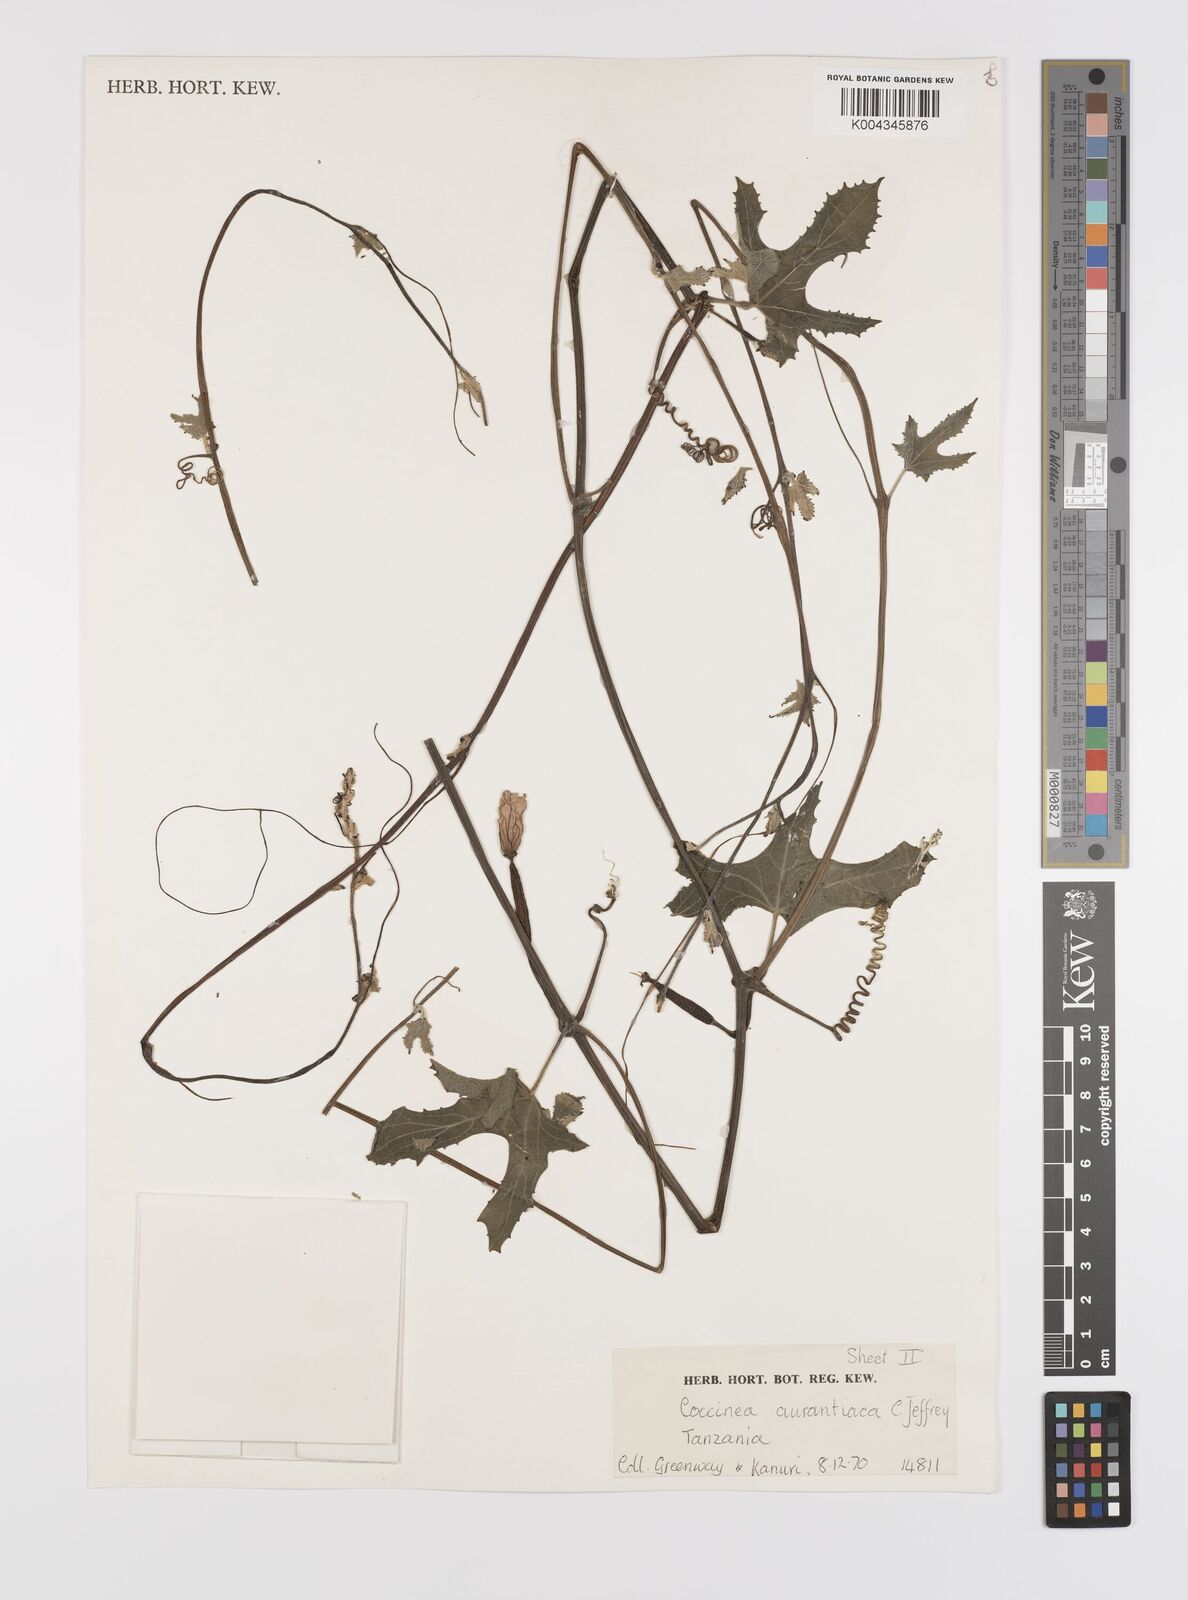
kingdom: Plantae
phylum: Tracheophyta
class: Magnoliopsida
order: Cucurbitales
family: Cucurbitaceae
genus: Coccinia
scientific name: Coccinia adoensis
